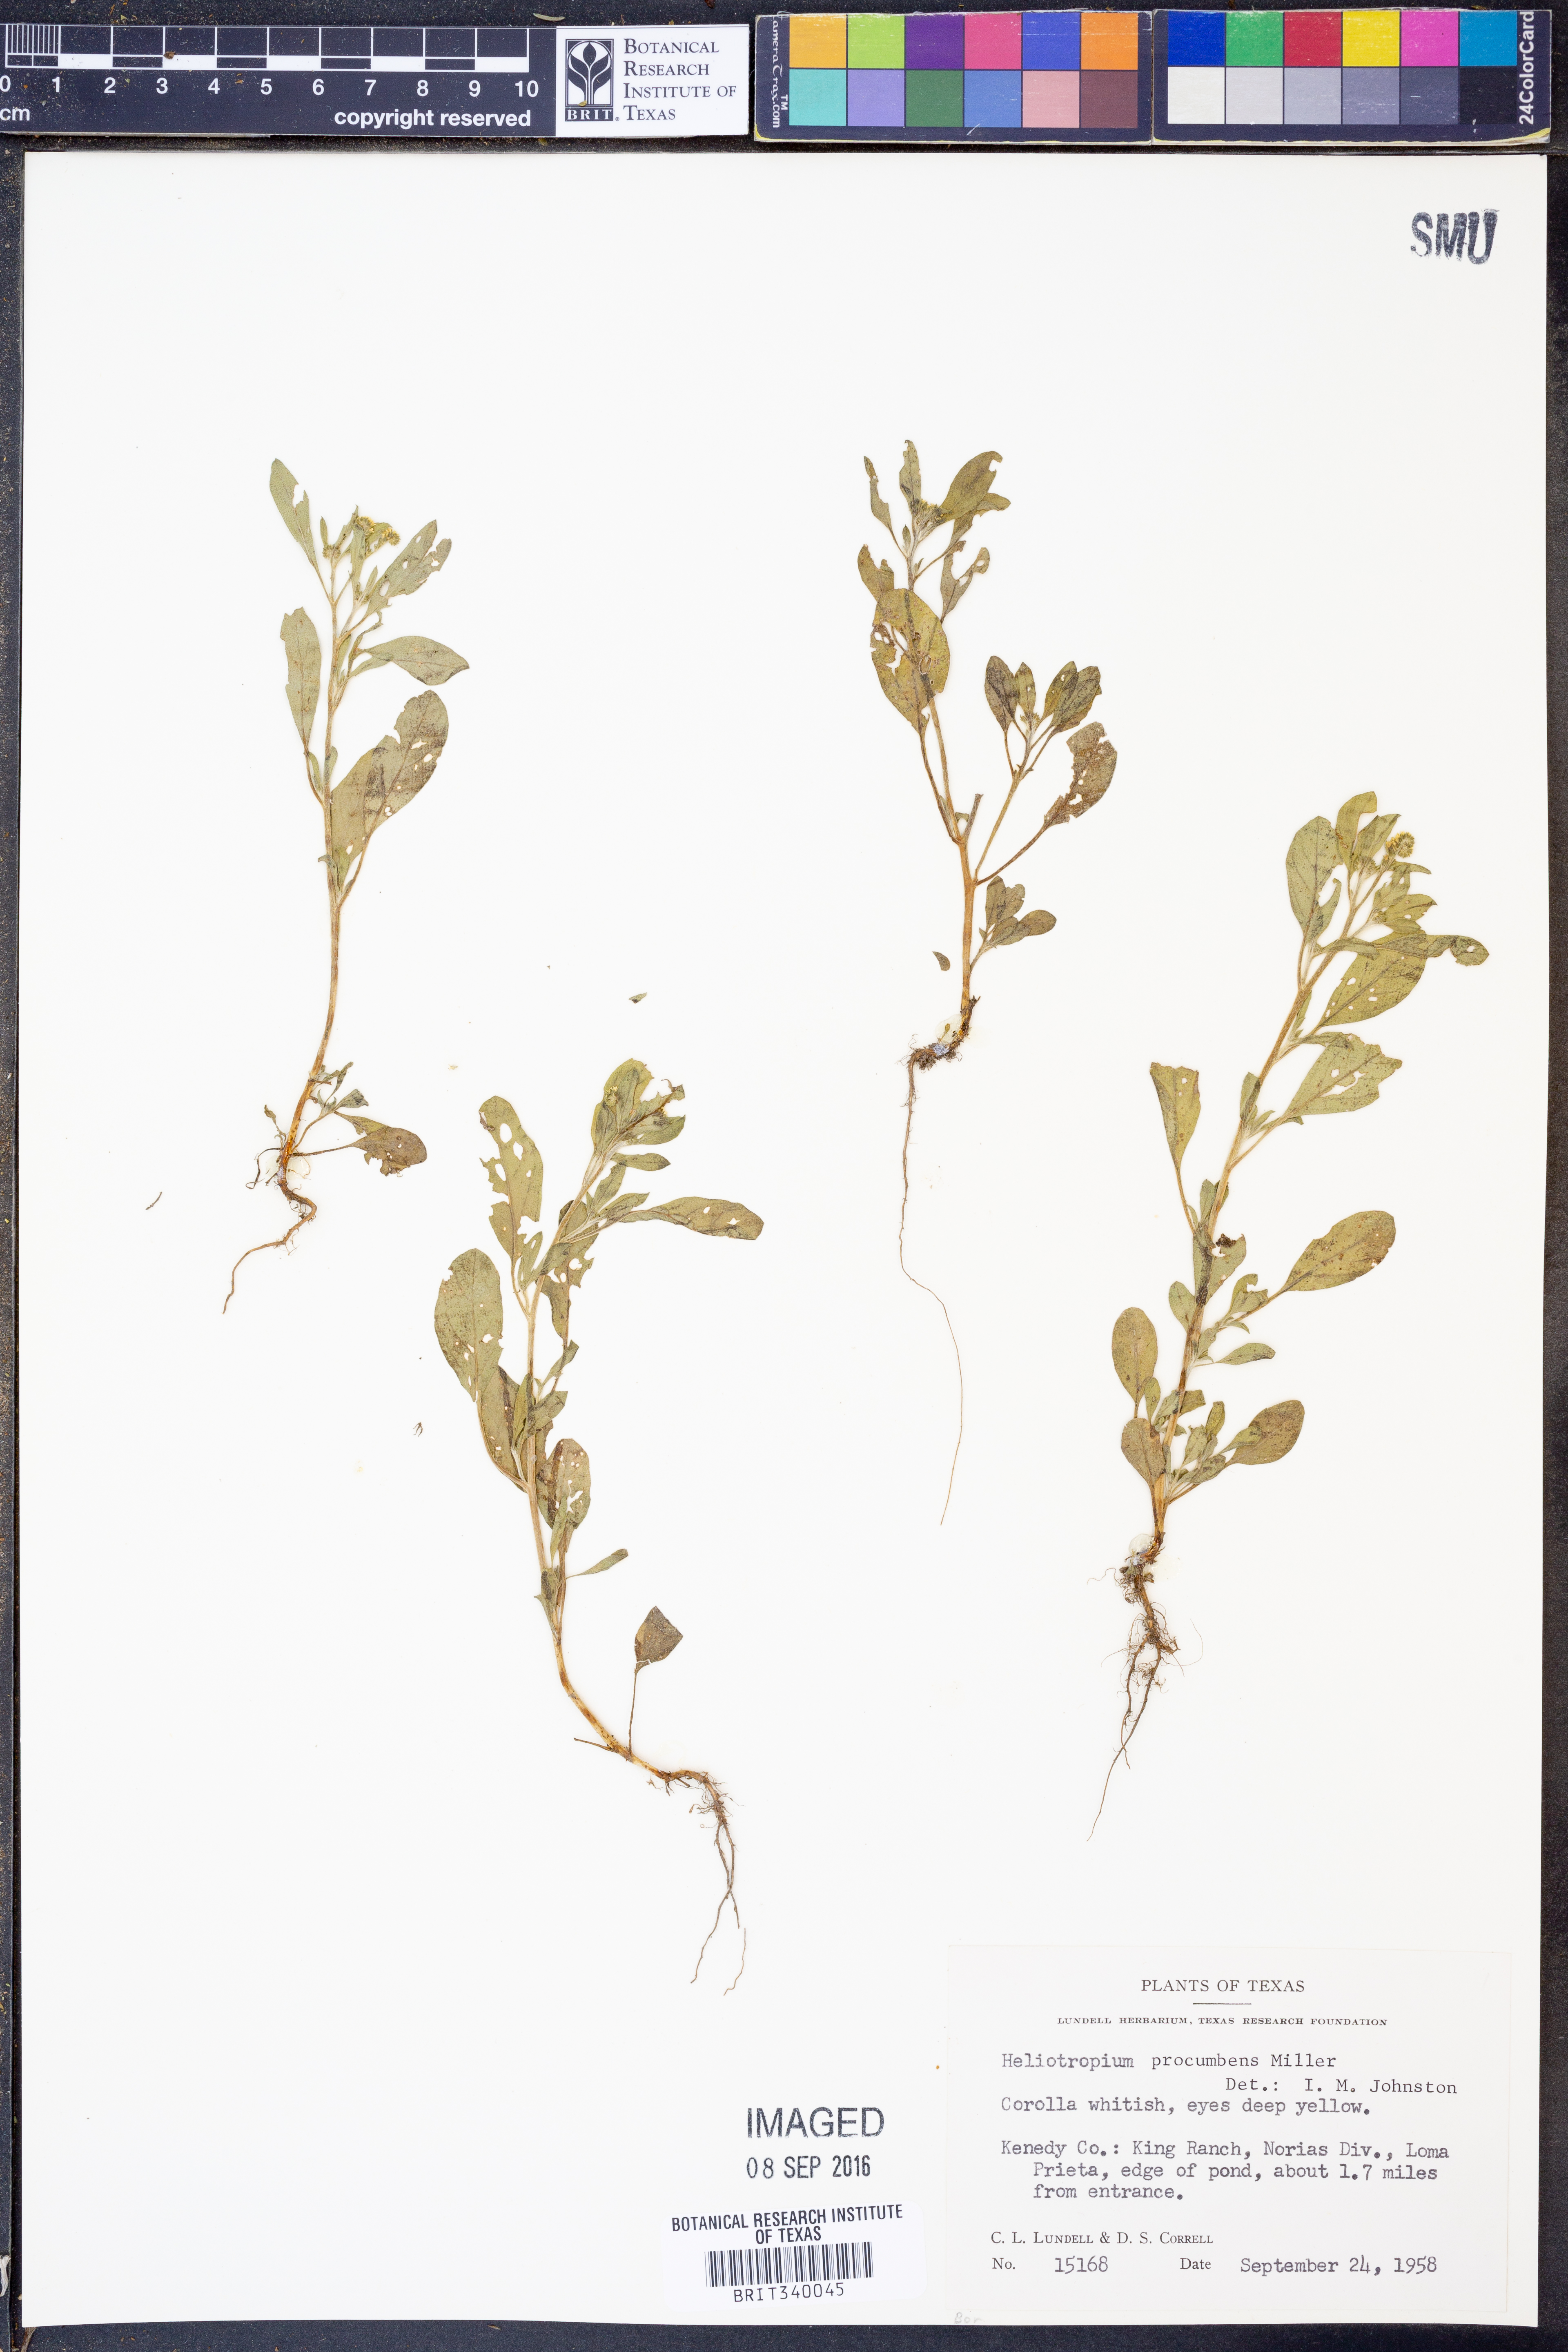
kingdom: Plantae
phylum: Tracheophyta
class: Magnoliopsida
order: Boraginales
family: Heliotropiaceae
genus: Euploca
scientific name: Euploca procumbens
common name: Fourspike heliotrope
